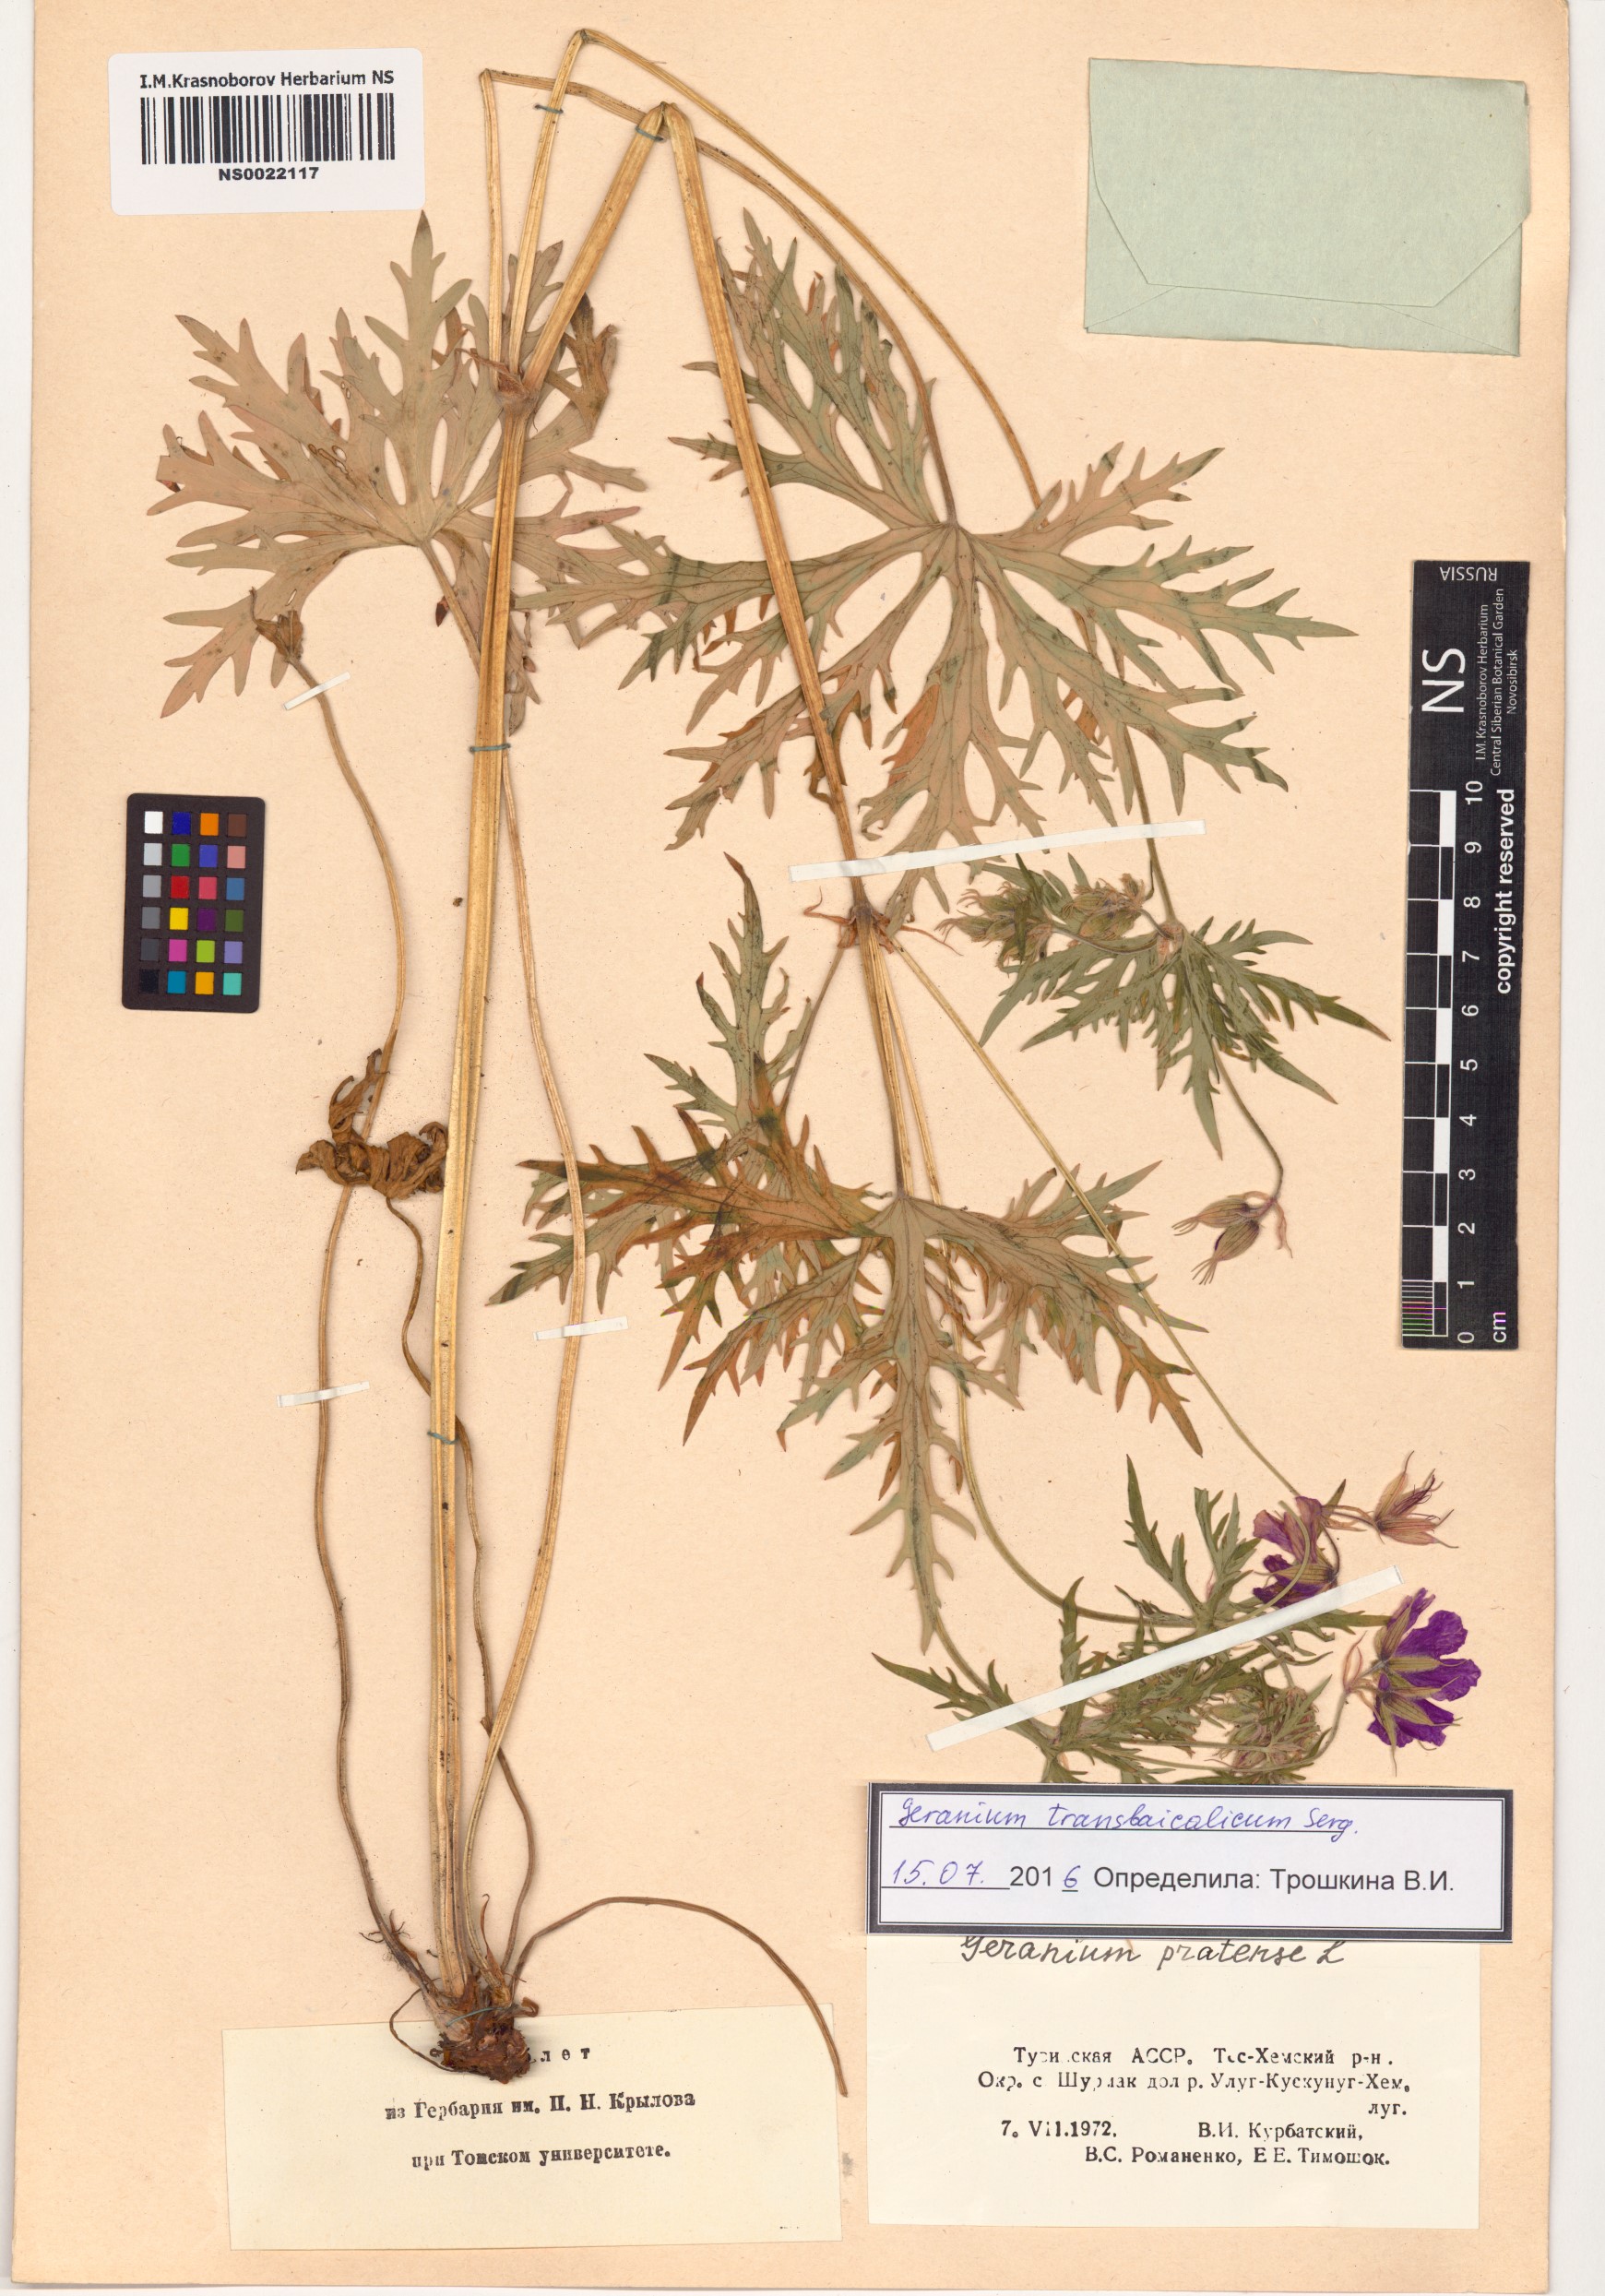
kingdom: Plantae
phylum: Tracheophyta
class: Magnoliopsida
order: Geraniales
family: Geraniaceae
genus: Geranium
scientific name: Geranium pratense
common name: Meadow crane's-bill
